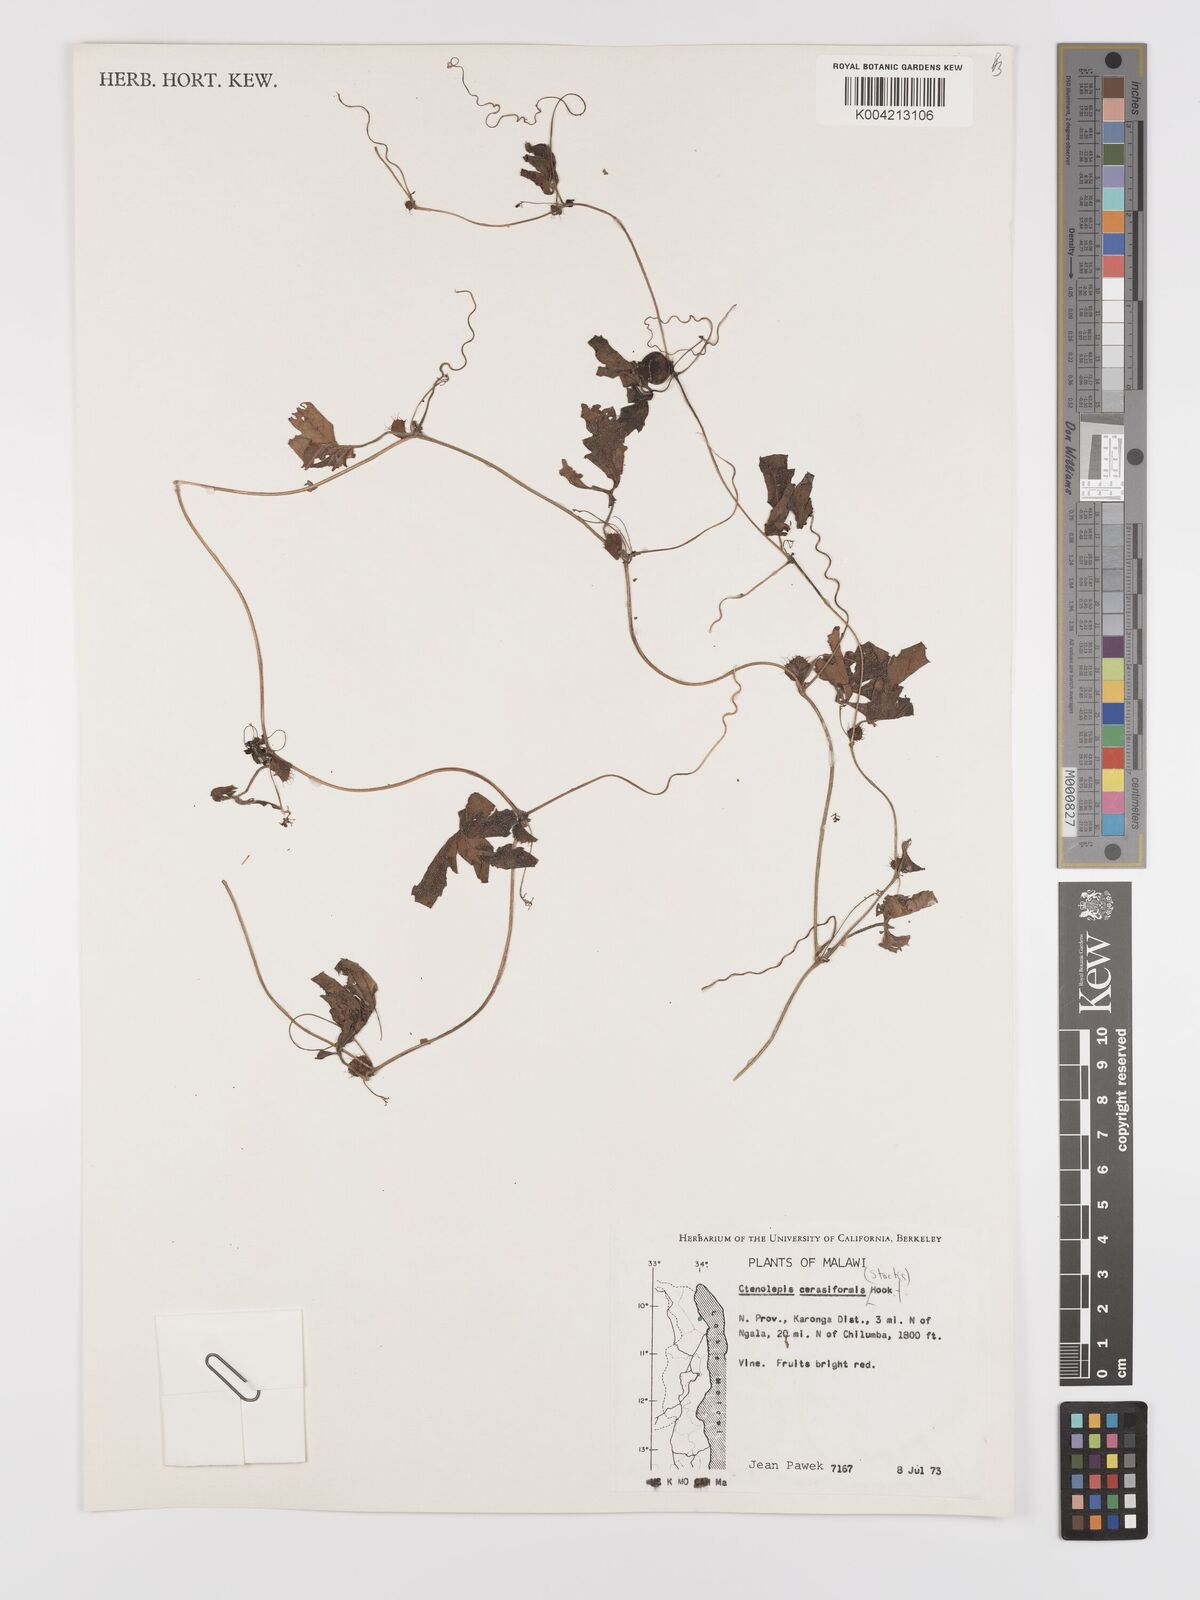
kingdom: Plantae
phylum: Tracheophyta
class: Magnoliopsida
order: Cucurbitales
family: Cucurbitaceae
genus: Blastania
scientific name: Blastania cerasiformis
